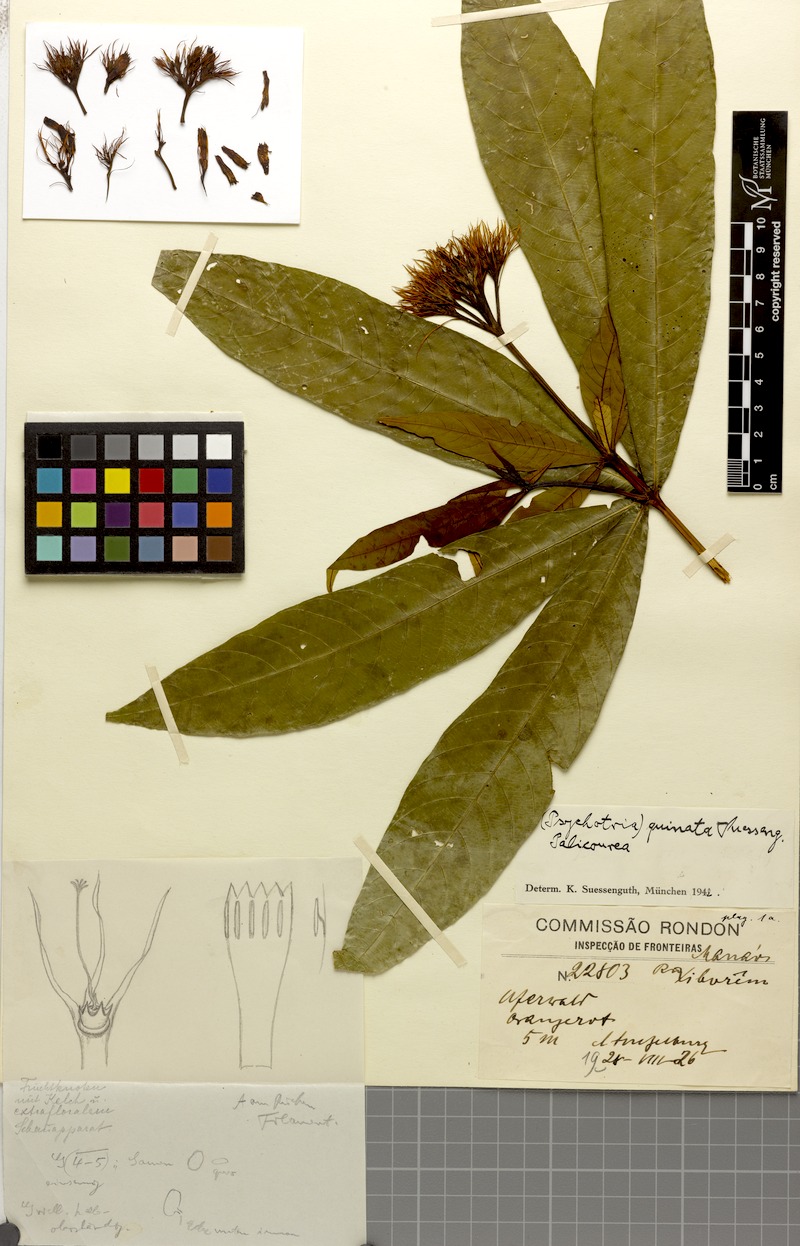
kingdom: Plantae
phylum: Tracheophyta
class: Magnoliopsida
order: Gentianales
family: Rubiaceae
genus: Palicourea
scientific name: Palicourea virens
